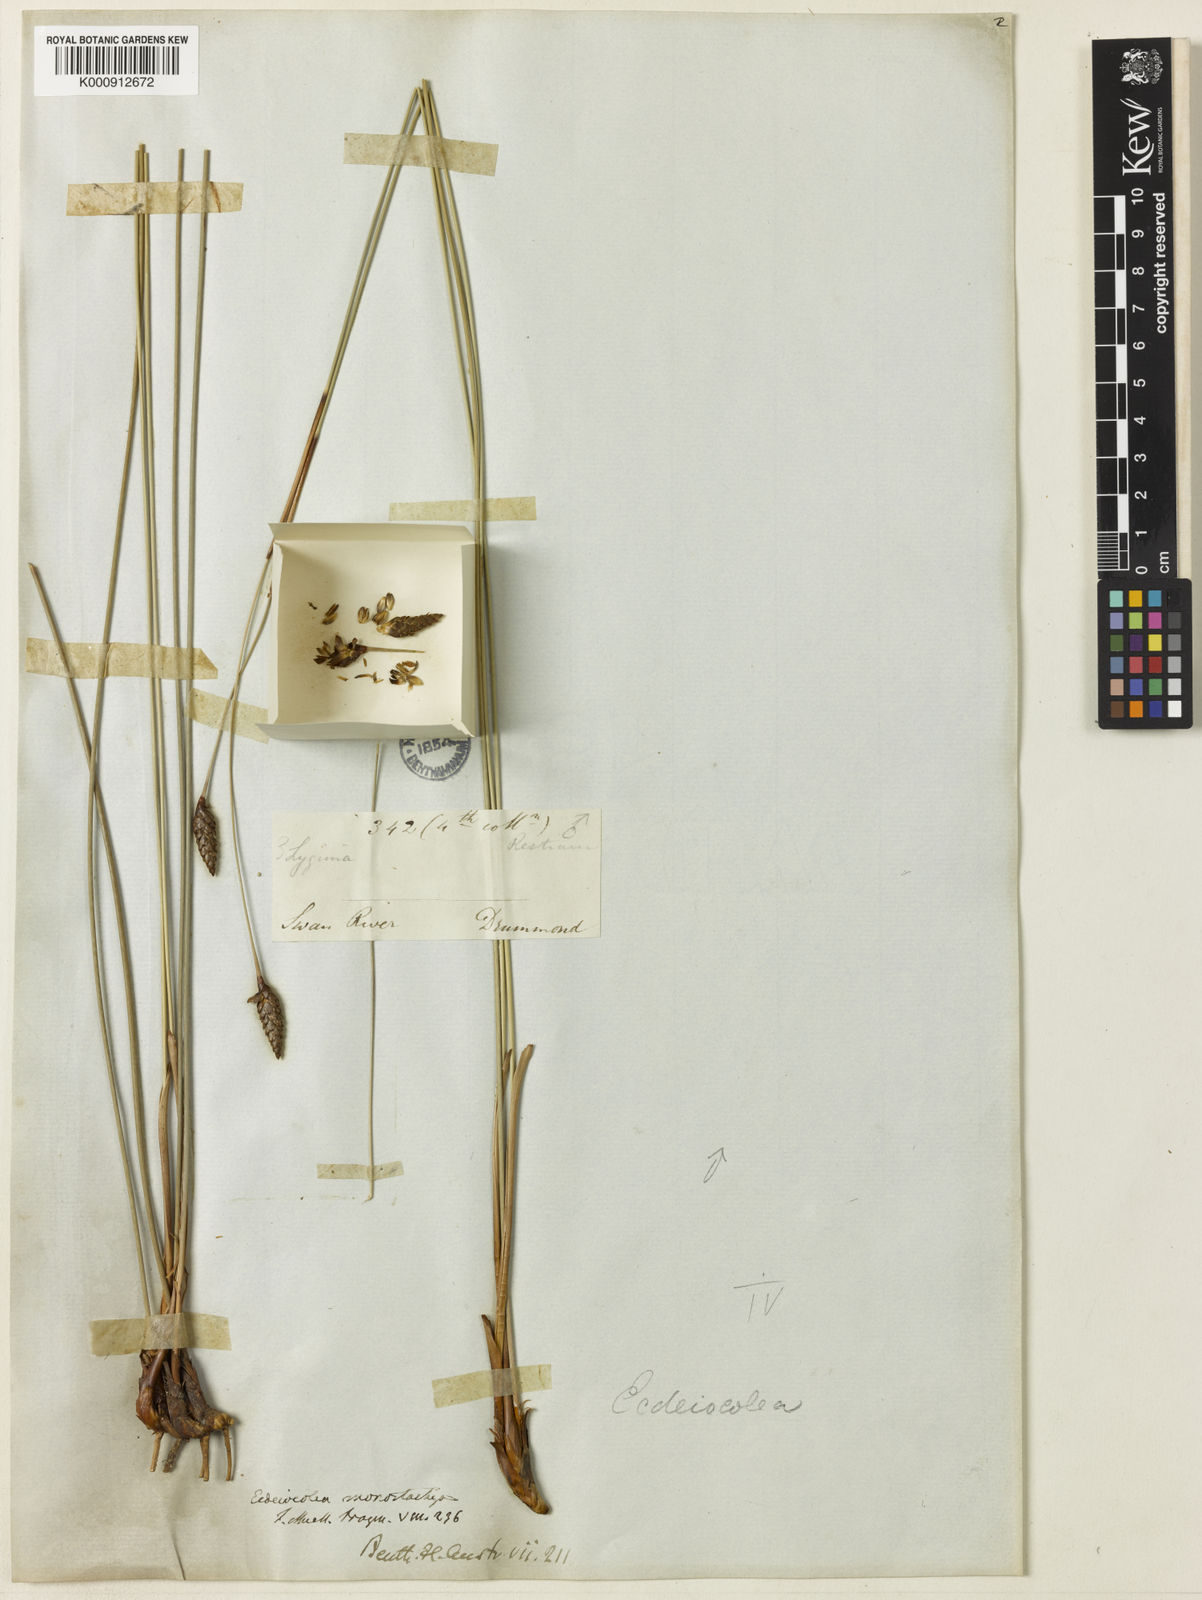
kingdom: Plantae
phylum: Tracheophyta
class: Liliopsida
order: Poales
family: Ecdeiocoleaceae
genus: Ecdeiocolea
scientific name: Ecdeiocolea monostachya
